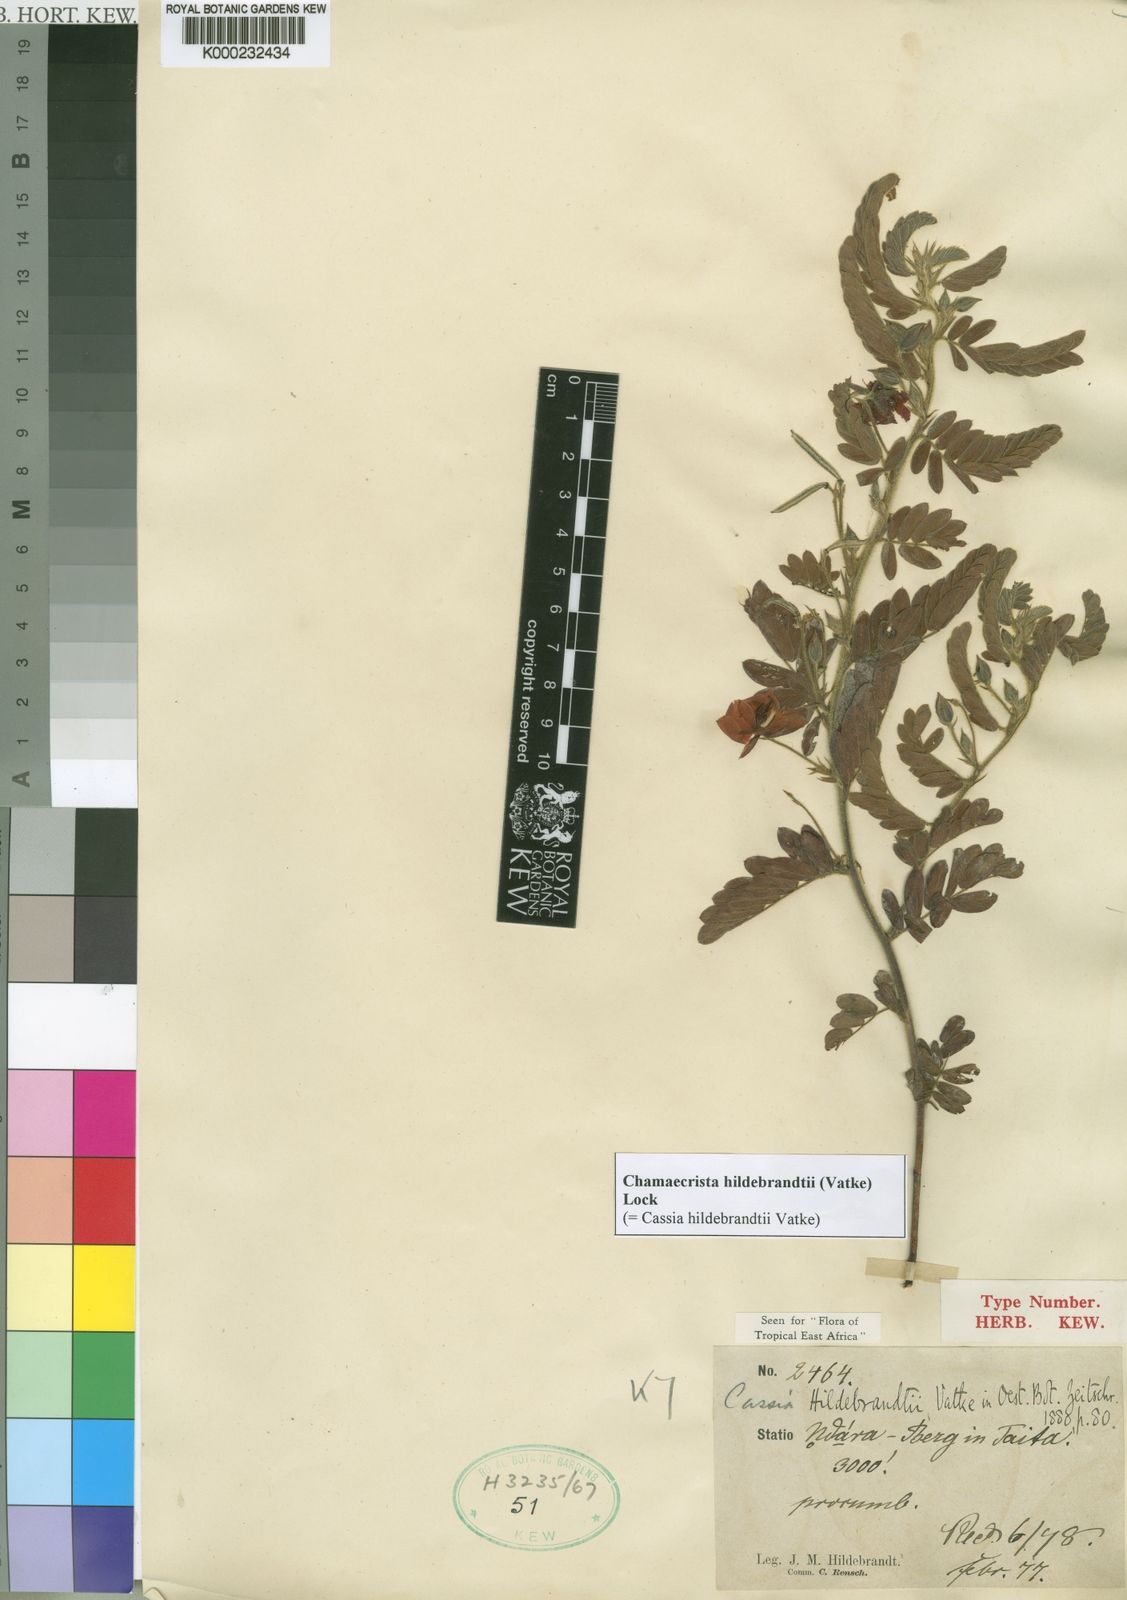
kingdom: Plantae
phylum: Tracheophyta
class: Magnoliopsida
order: Fabales
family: Fabaceae
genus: Chamaecrista
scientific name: Chamaecrista hildebrandtii
